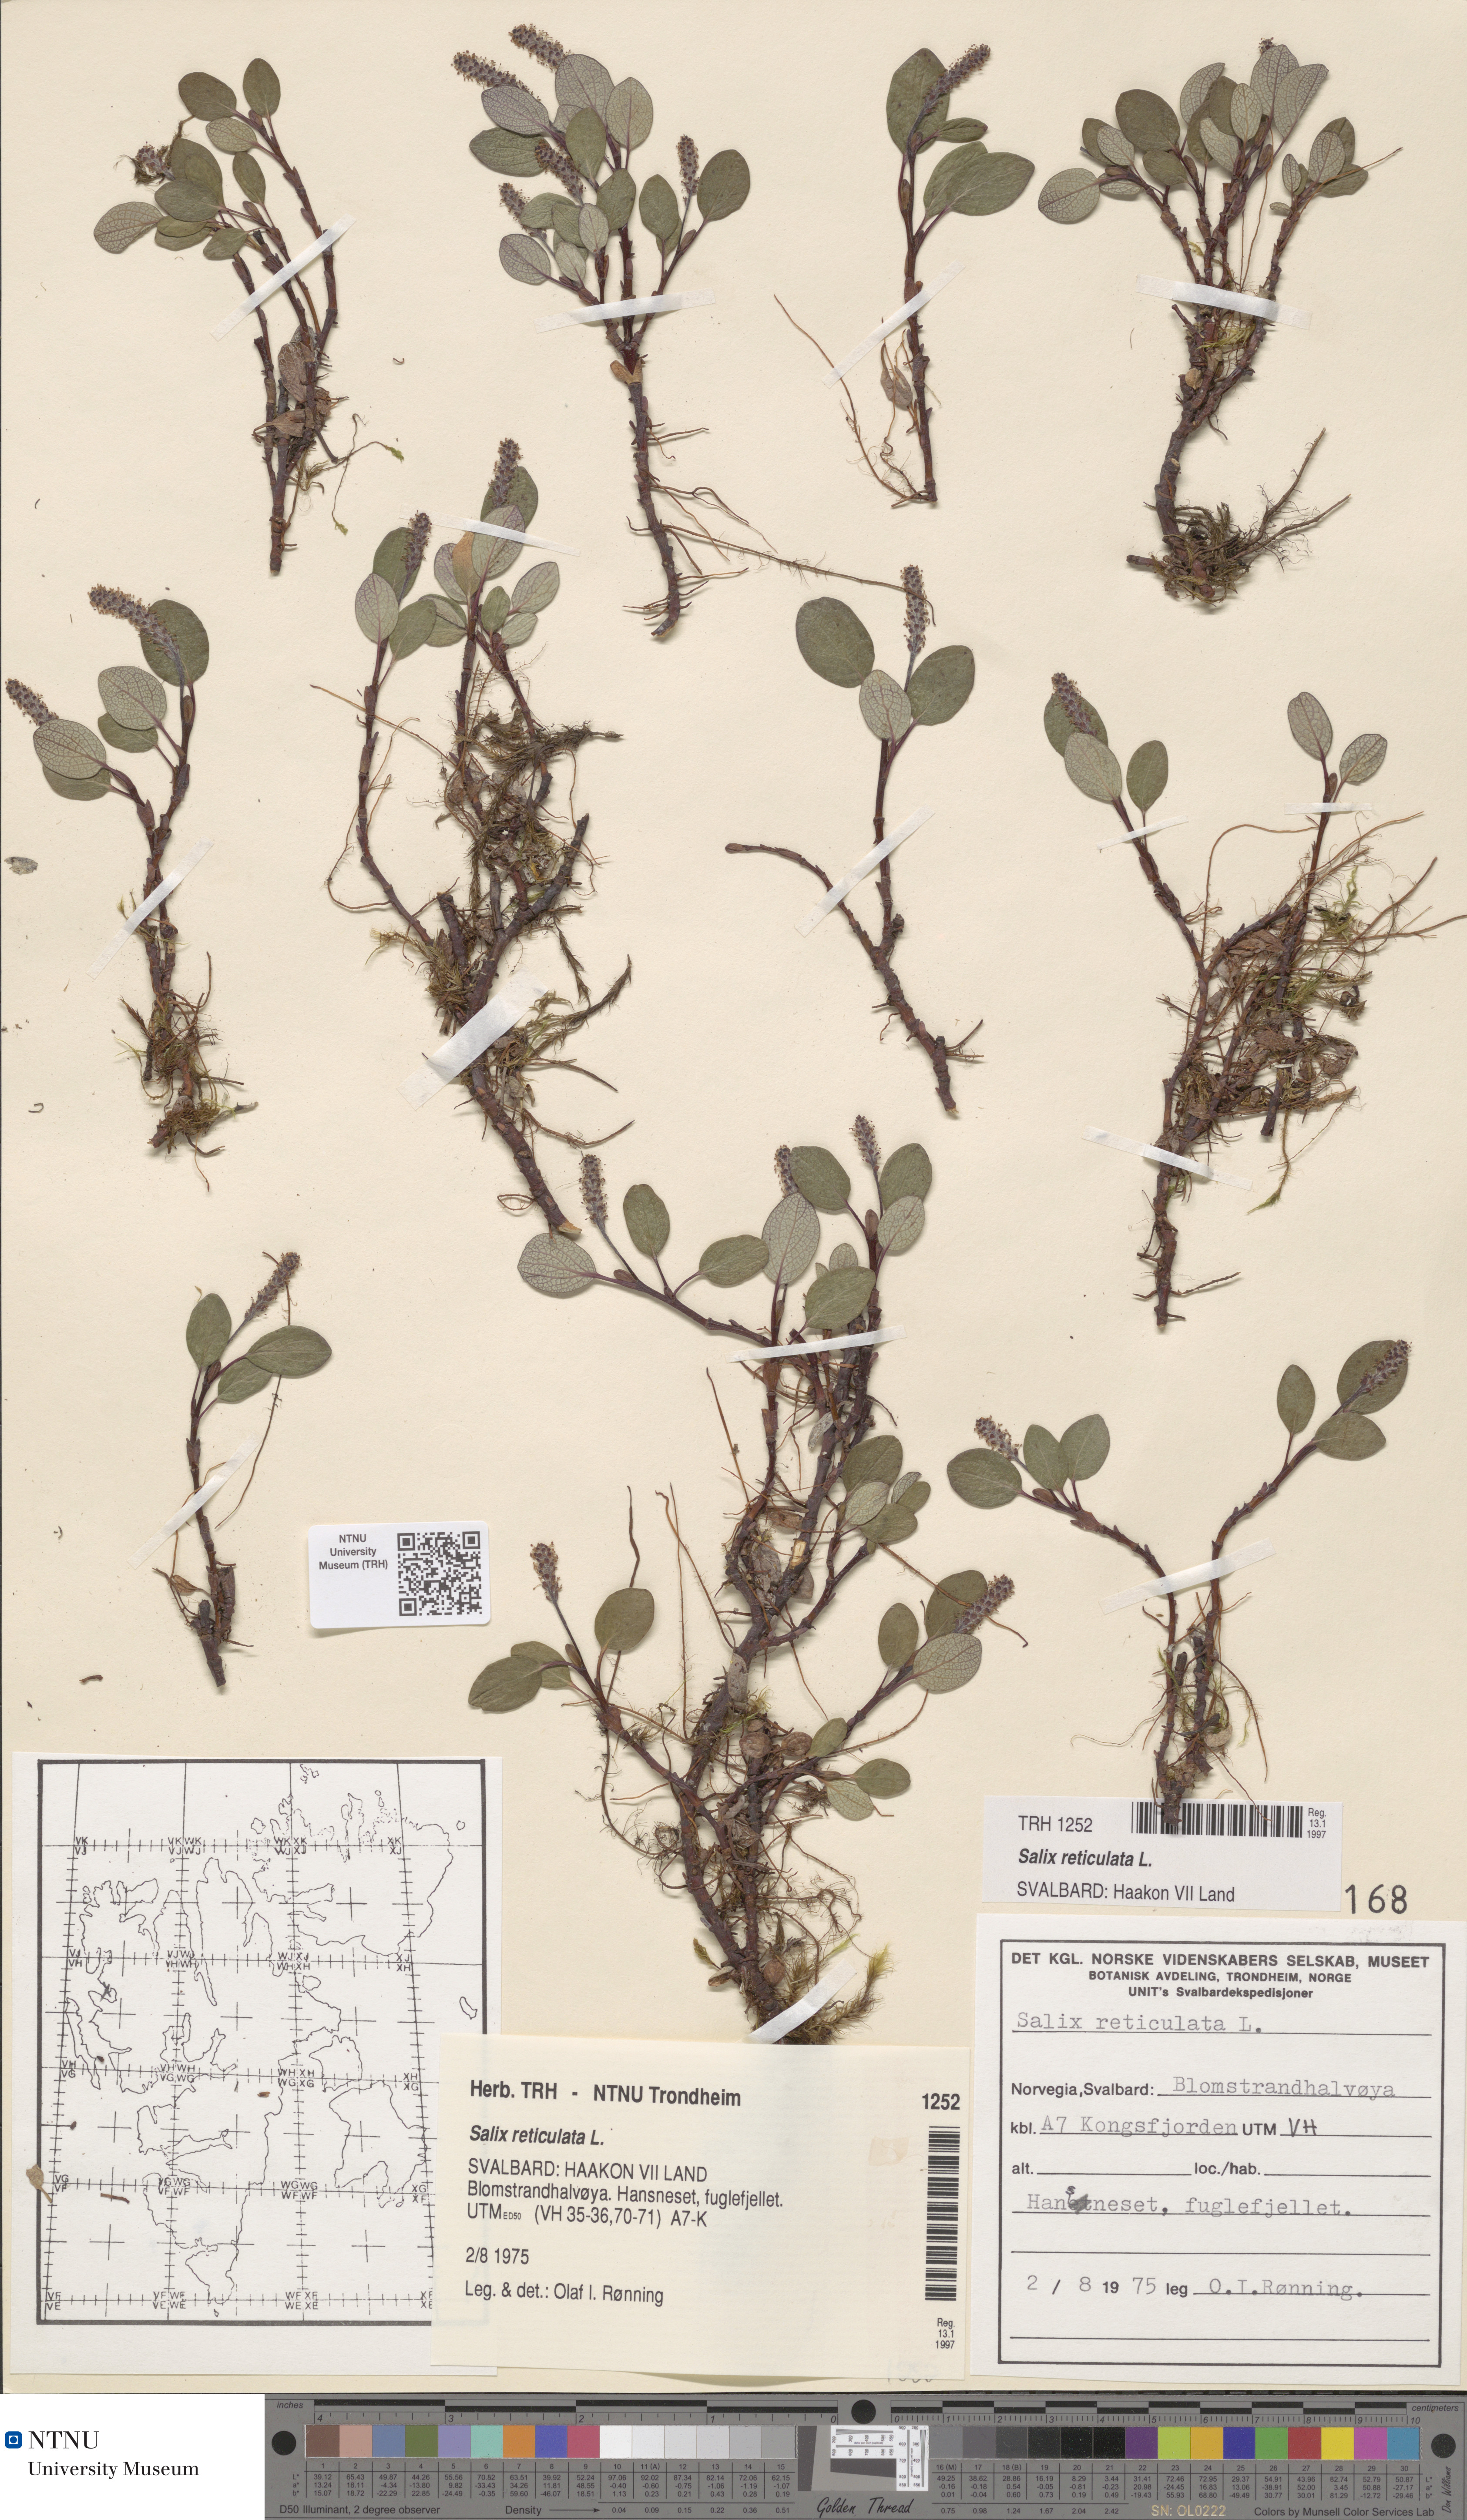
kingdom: Plantae
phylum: Tracheophyta
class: Magnoliopsida
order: Malpighiales
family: Salicaceae
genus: Salix
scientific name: Salix reticulata
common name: Net-leaved willow
